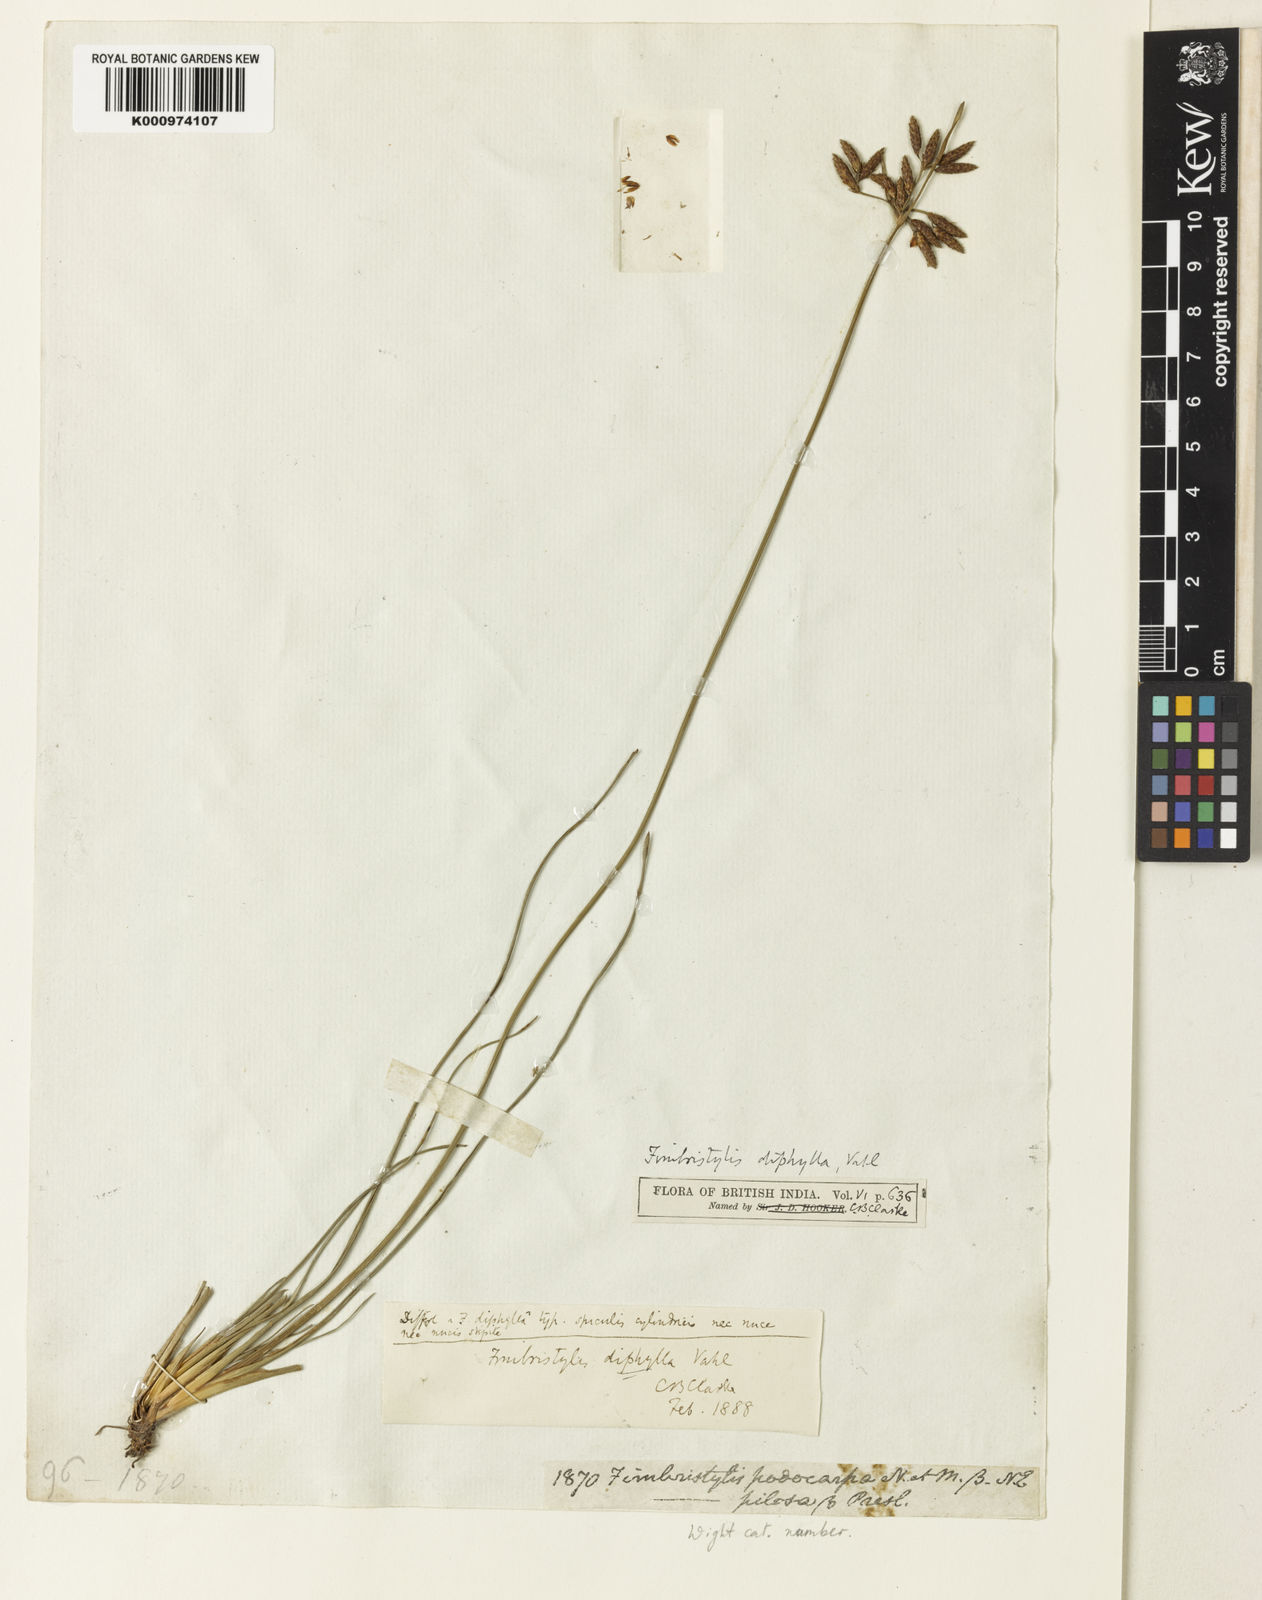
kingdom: Plantae
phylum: Tracheophyta
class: Liliopsida
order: Poales
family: Cyperaceae
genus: Fimbristylis
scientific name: Fimbristylis dichotoma
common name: Forked fimbry
